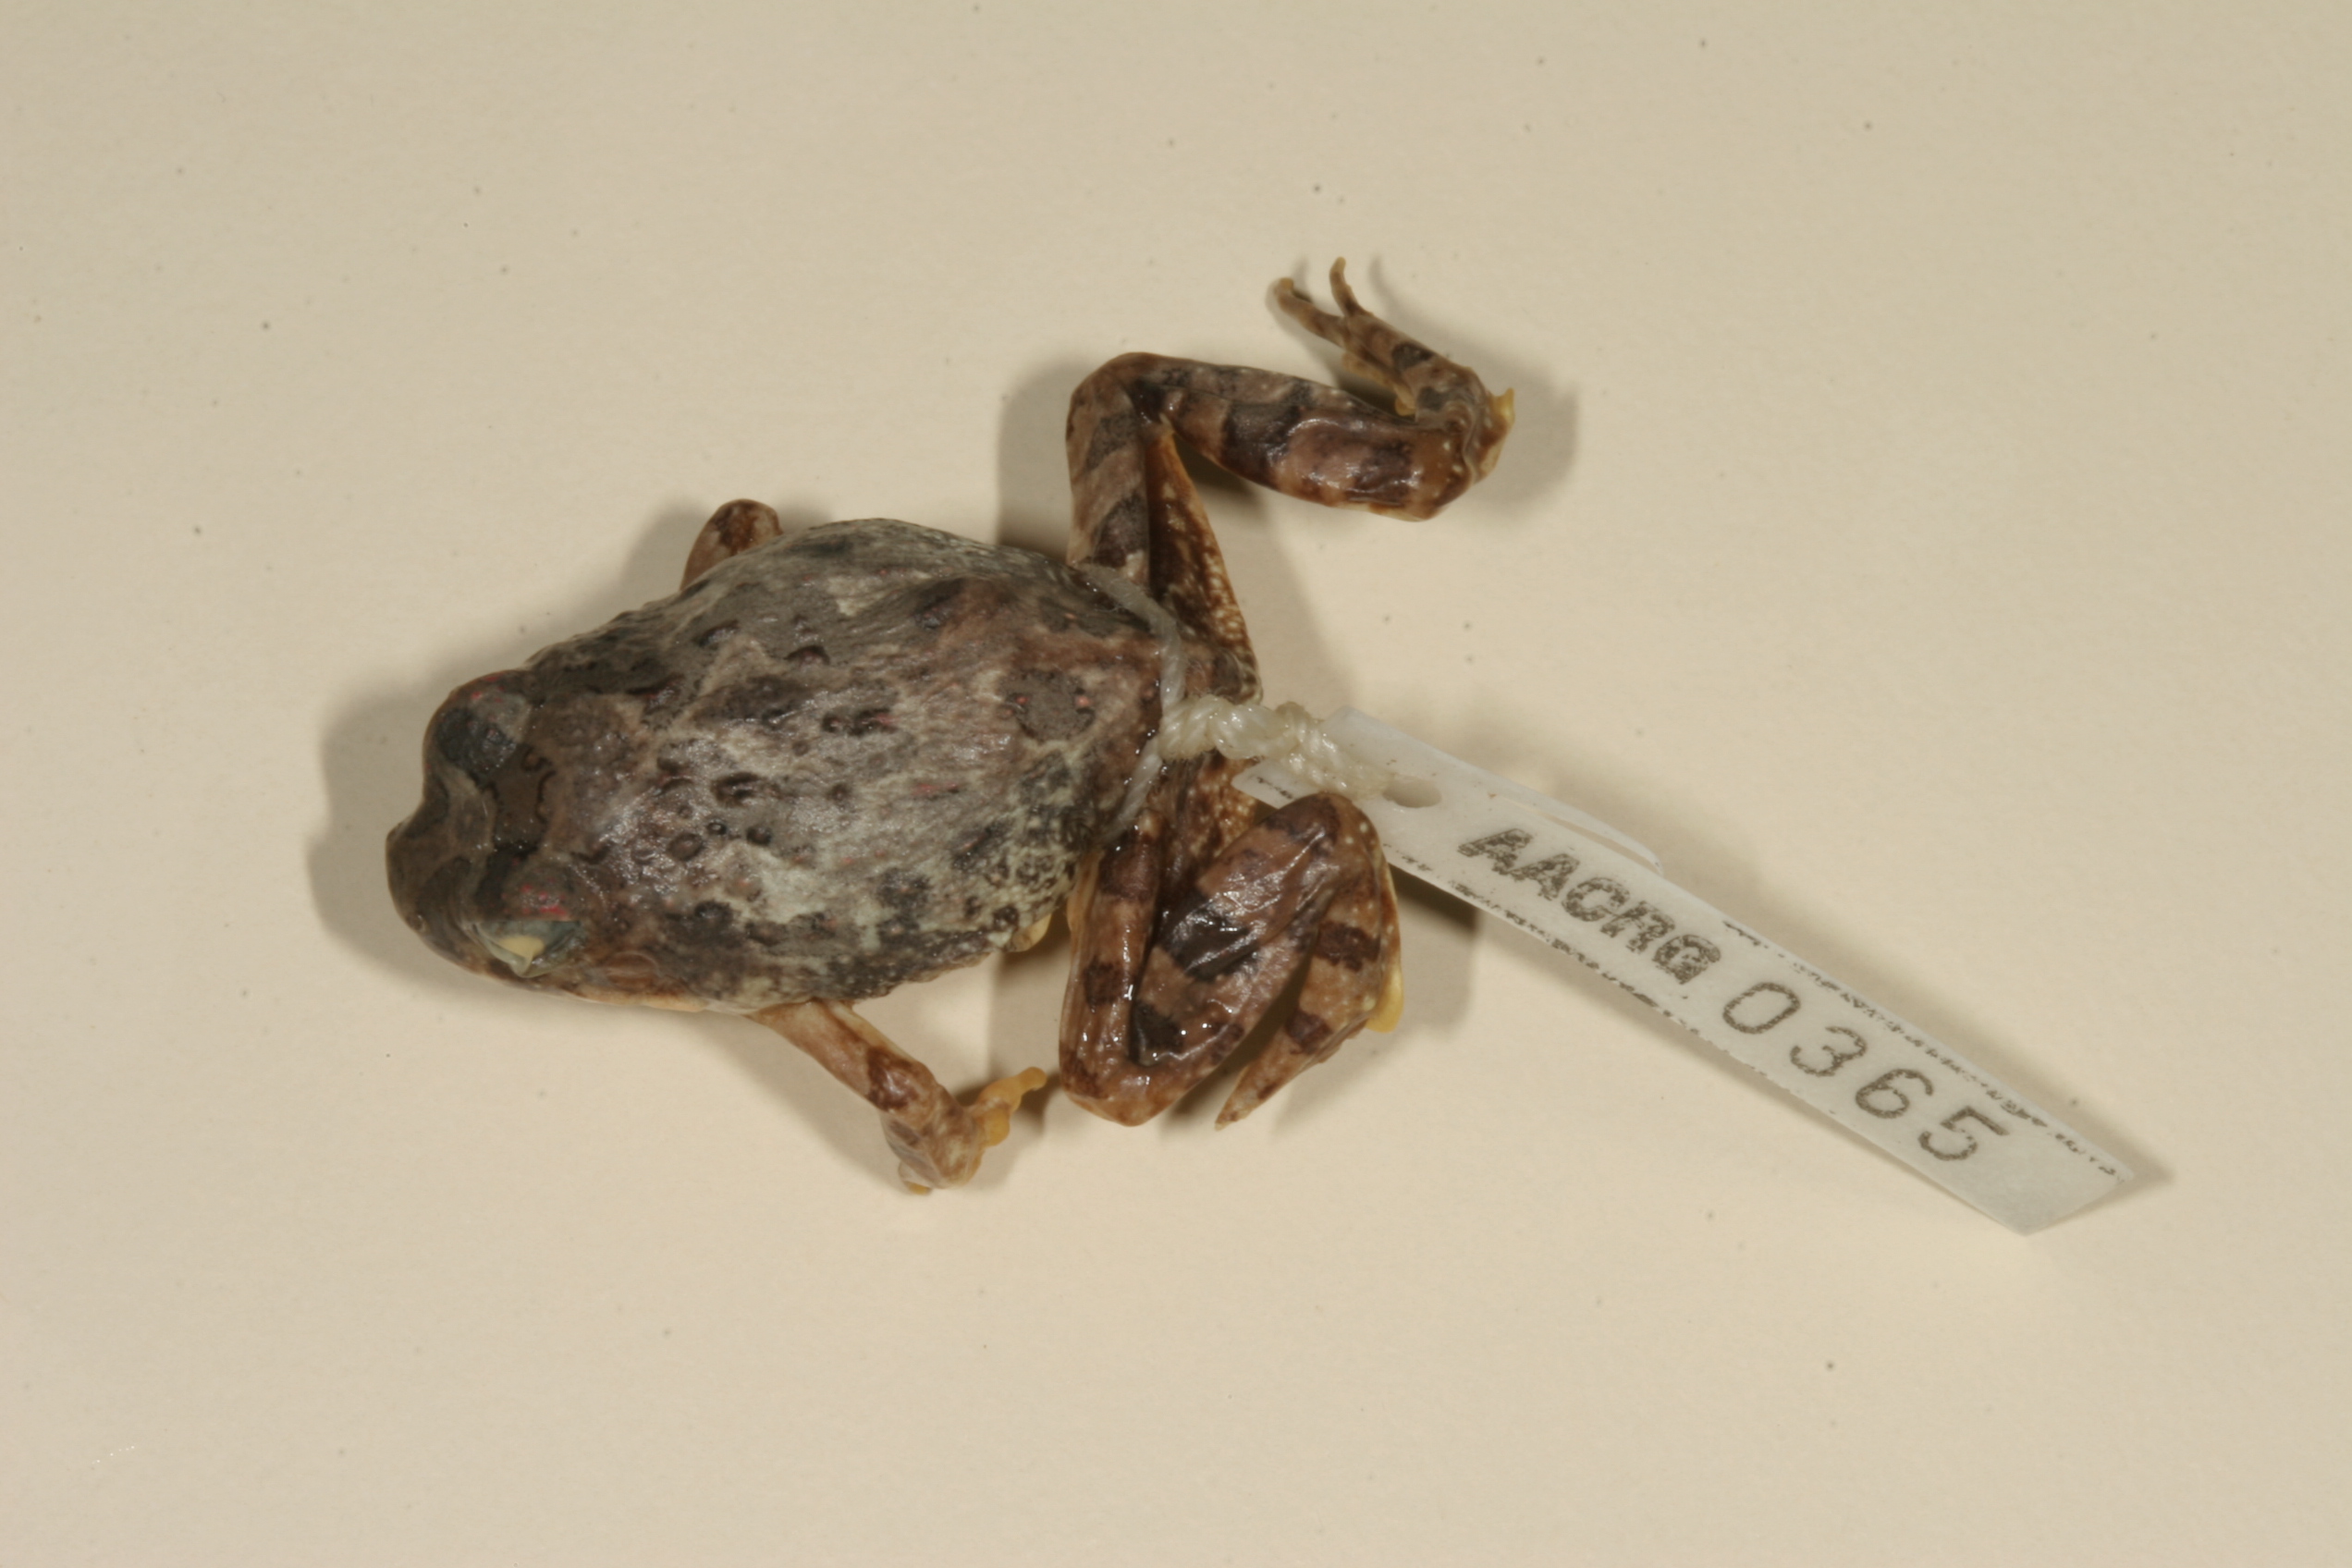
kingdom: Animalia
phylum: Chordata
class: Amphibia
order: Anura
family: Pyxicephalidae
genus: Tomopterna
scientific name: Tomopterna cryptotis
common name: Catequero bullfrog
